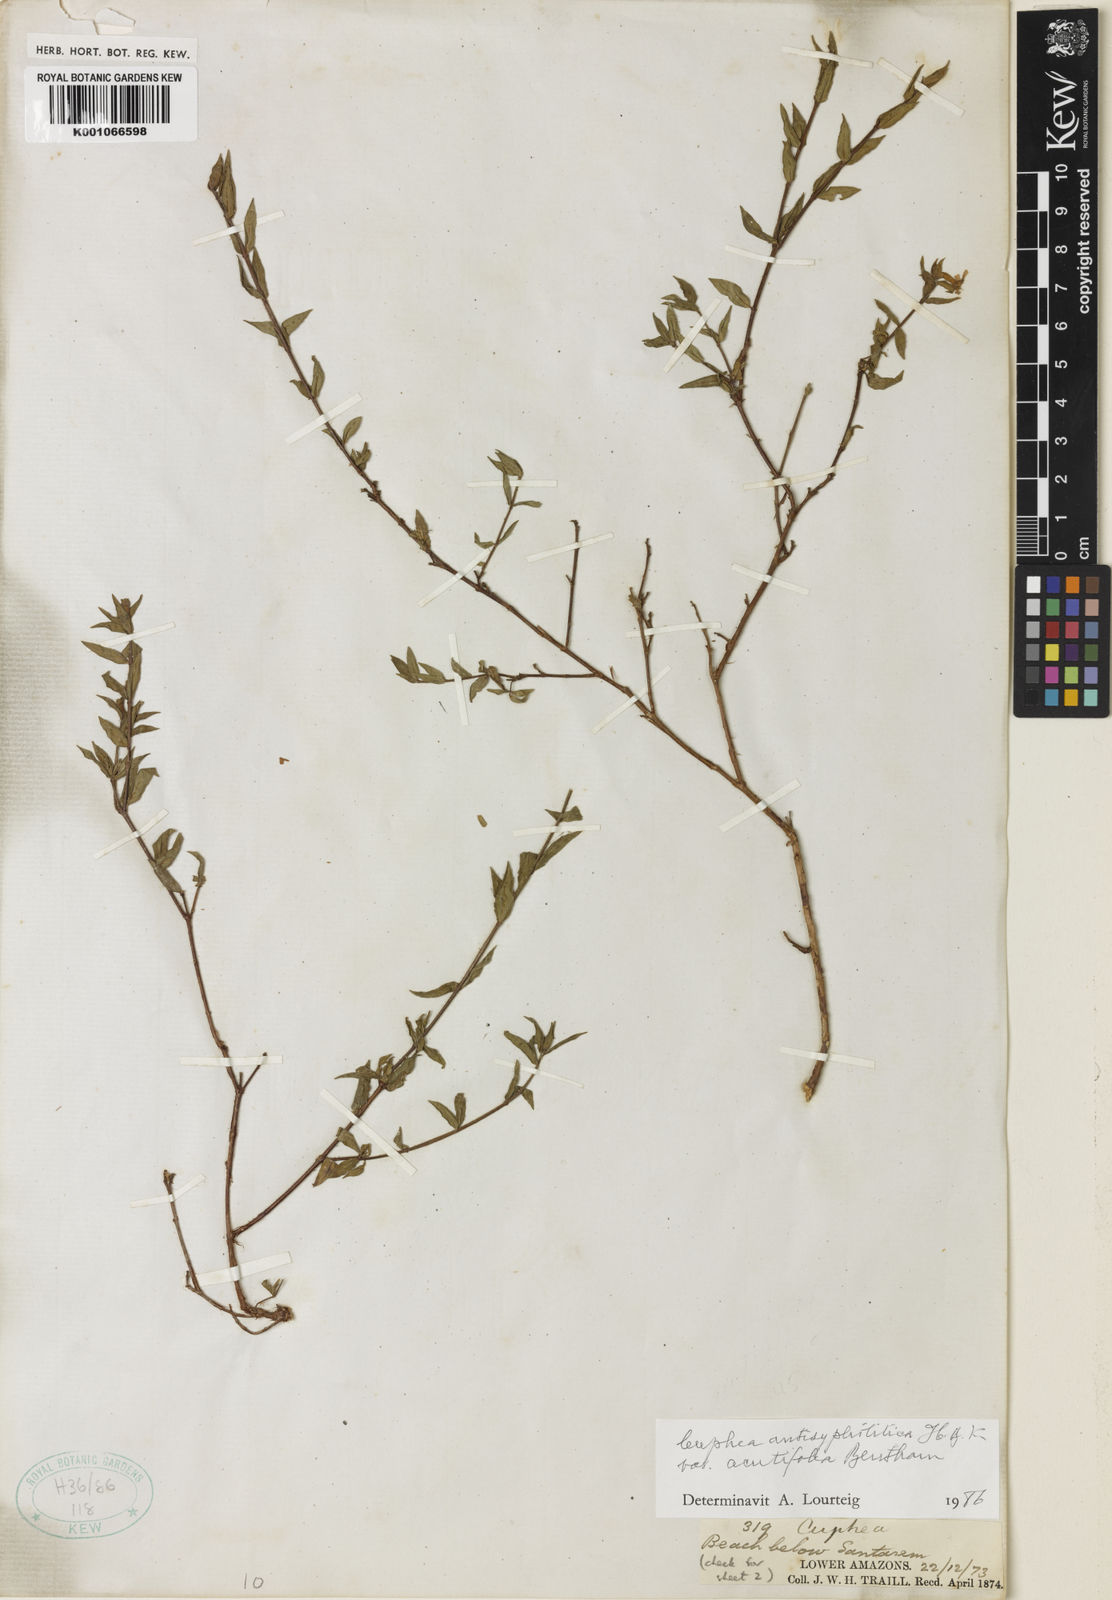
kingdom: Plantae
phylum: Tracheophyta
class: Magnoliopsida
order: Myrtales
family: Lythraceae
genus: Cuphea
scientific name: Cuphea antisyphilitica
